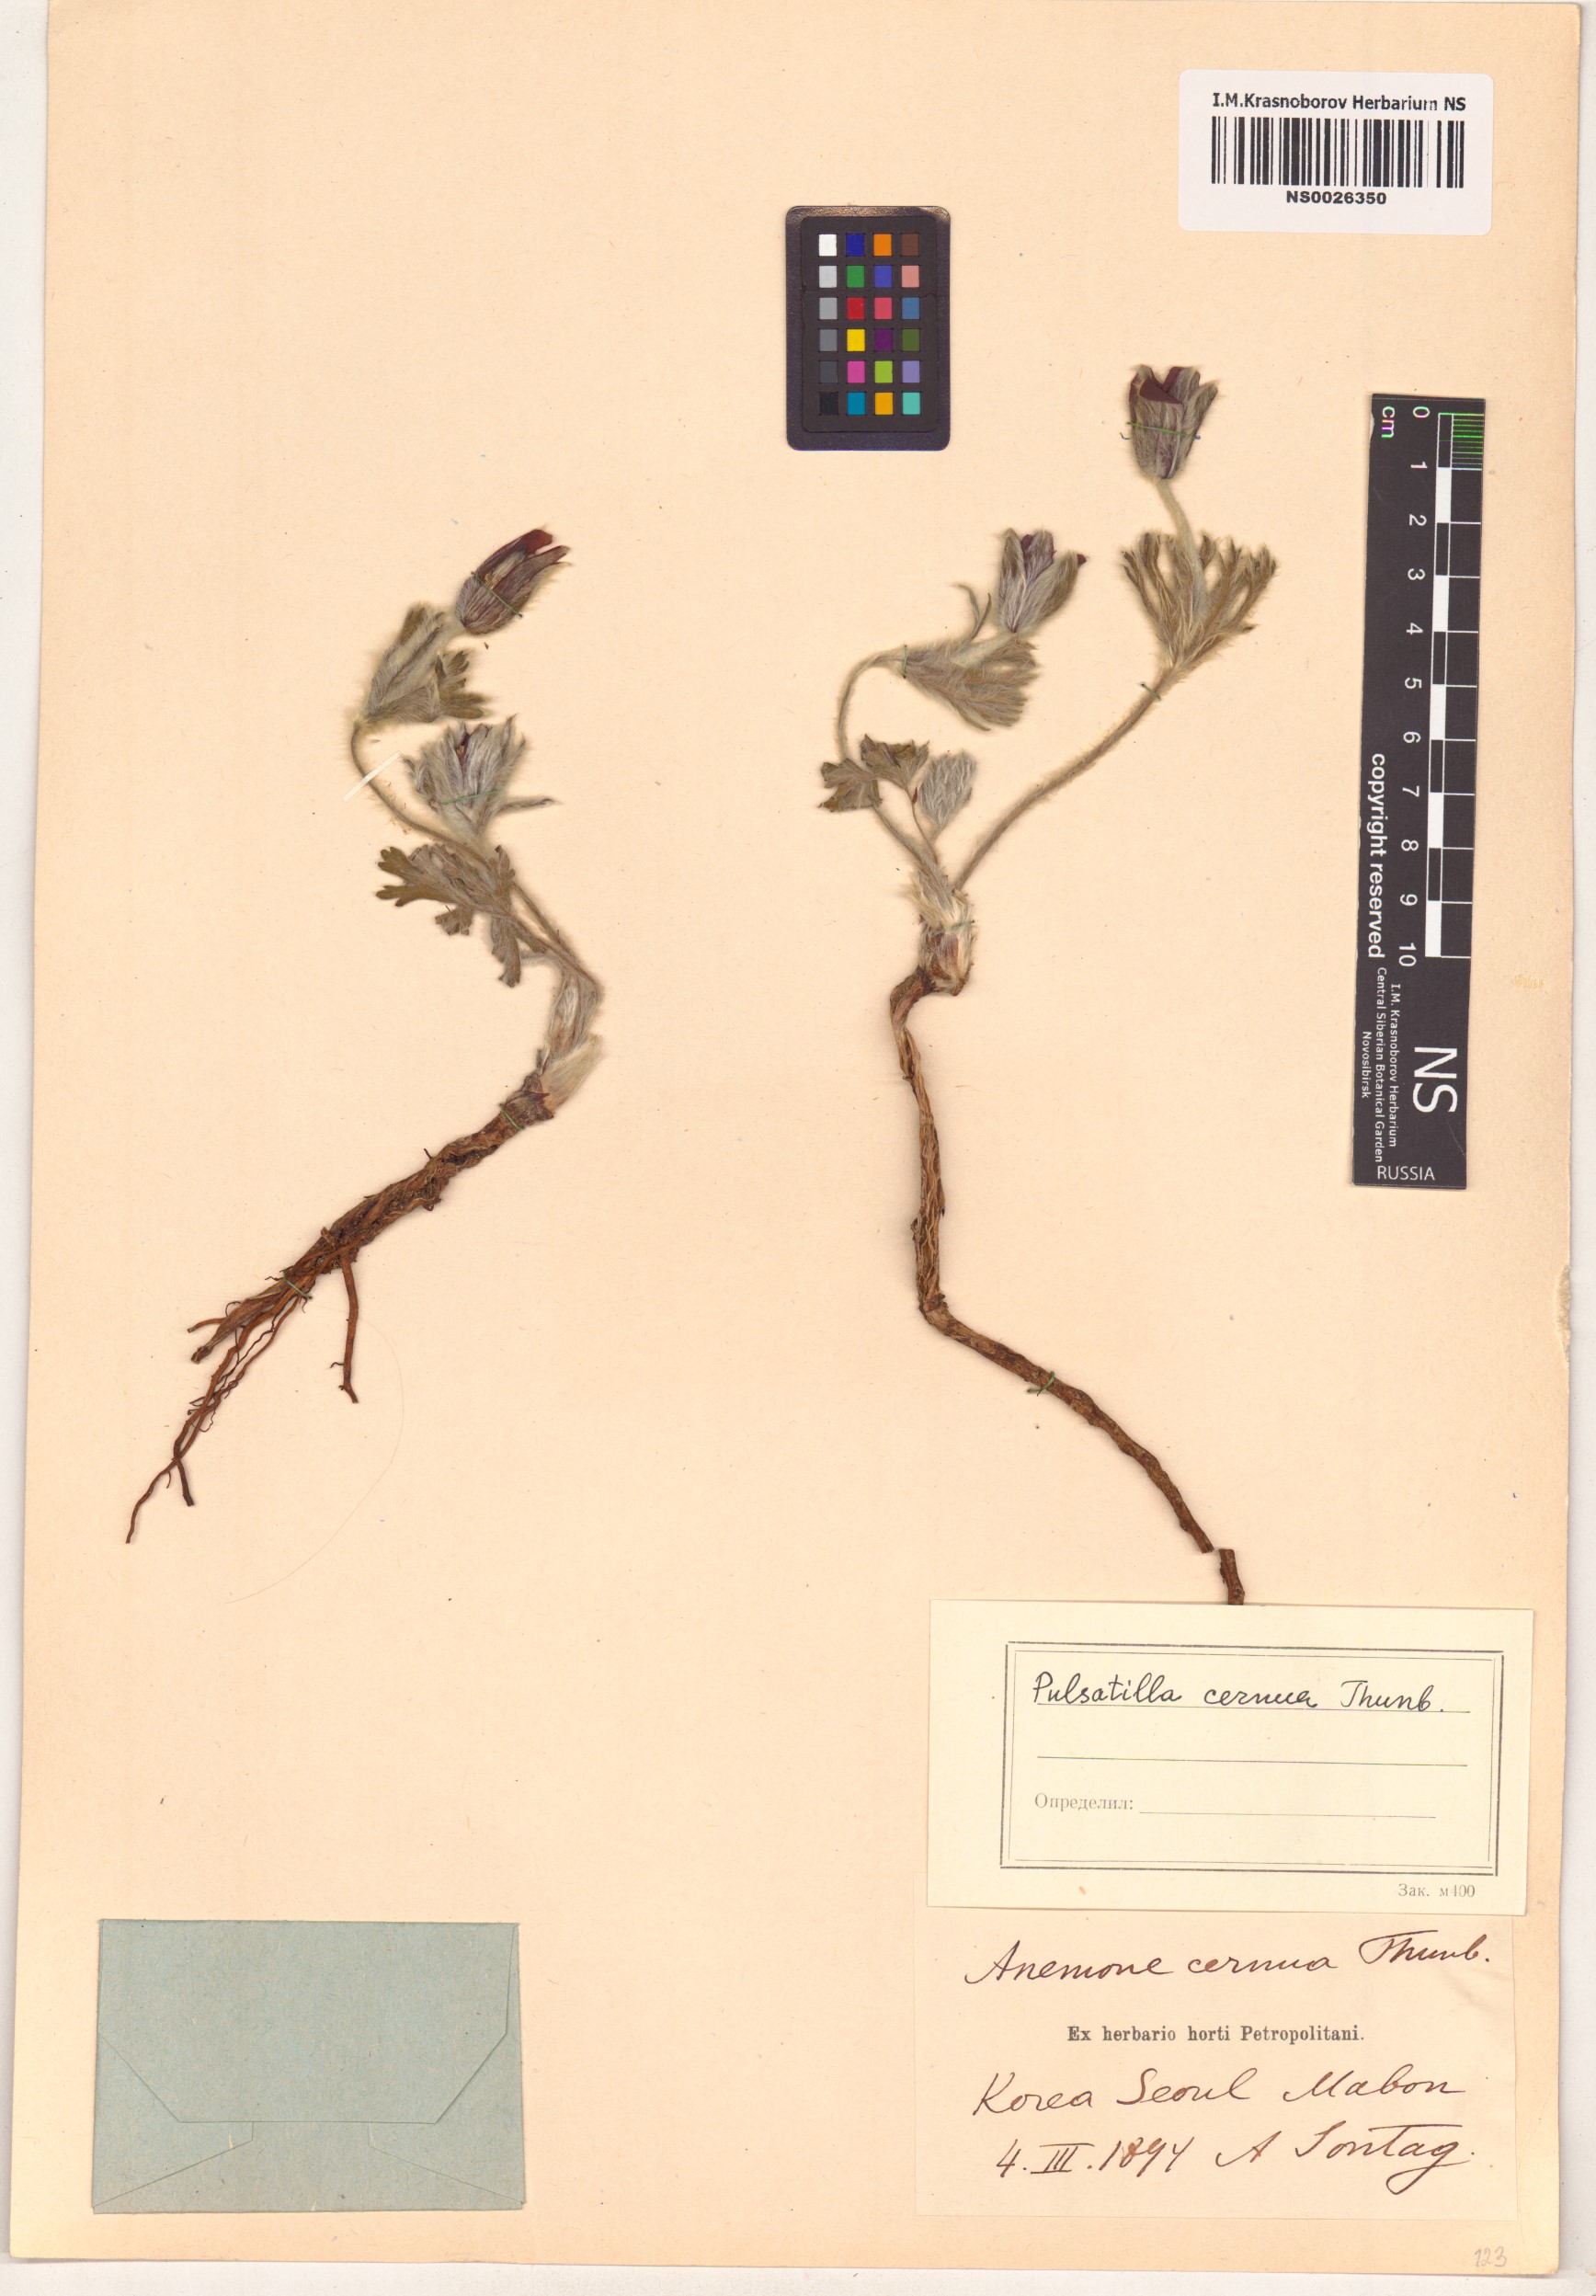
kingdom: Plantae
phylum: Tracheophyta
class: Magnoliopsida
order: Ranunculales
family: Ranunculaceae
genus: Pulsatilla
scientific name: Pulsatilla cernua
